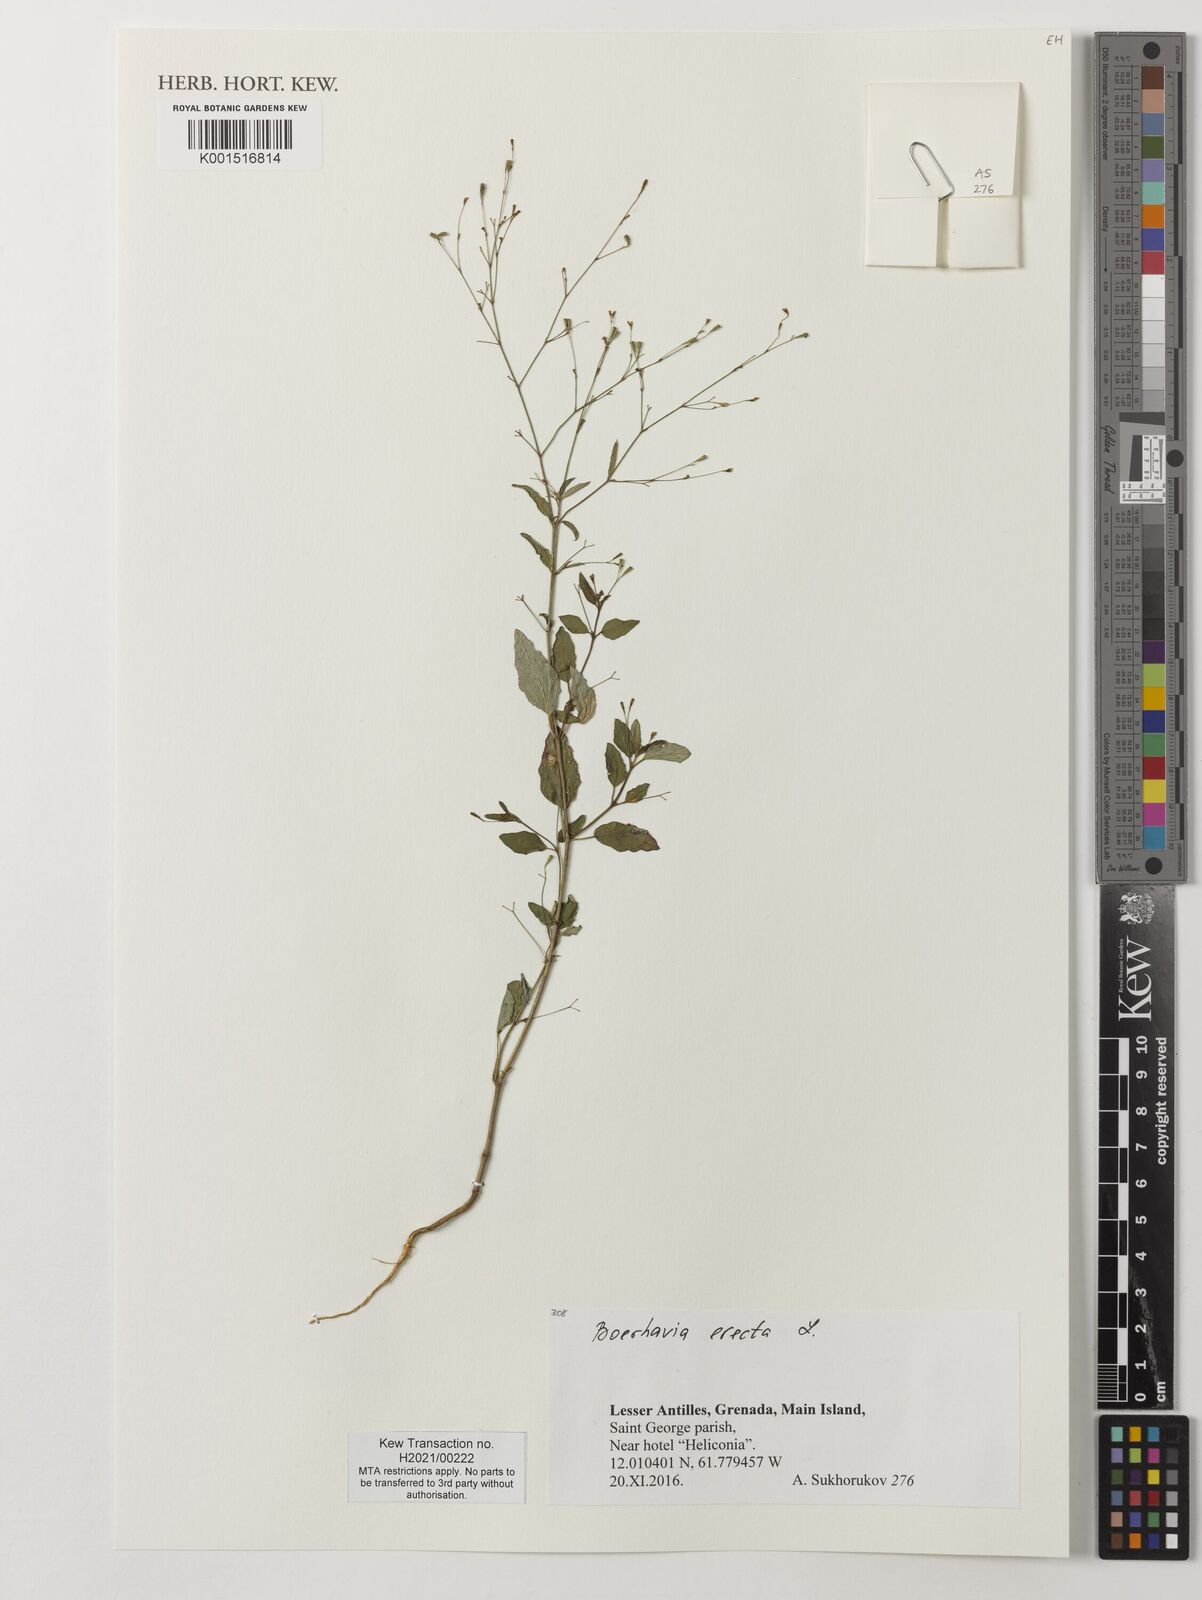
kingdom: Plantae
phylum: Tracheophyta
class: Magnoliopsida
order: Caryophyllales
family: Nyctaginaceae
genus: Boerhavia
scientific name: Boerhavia erecta
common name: Erect spiderling
